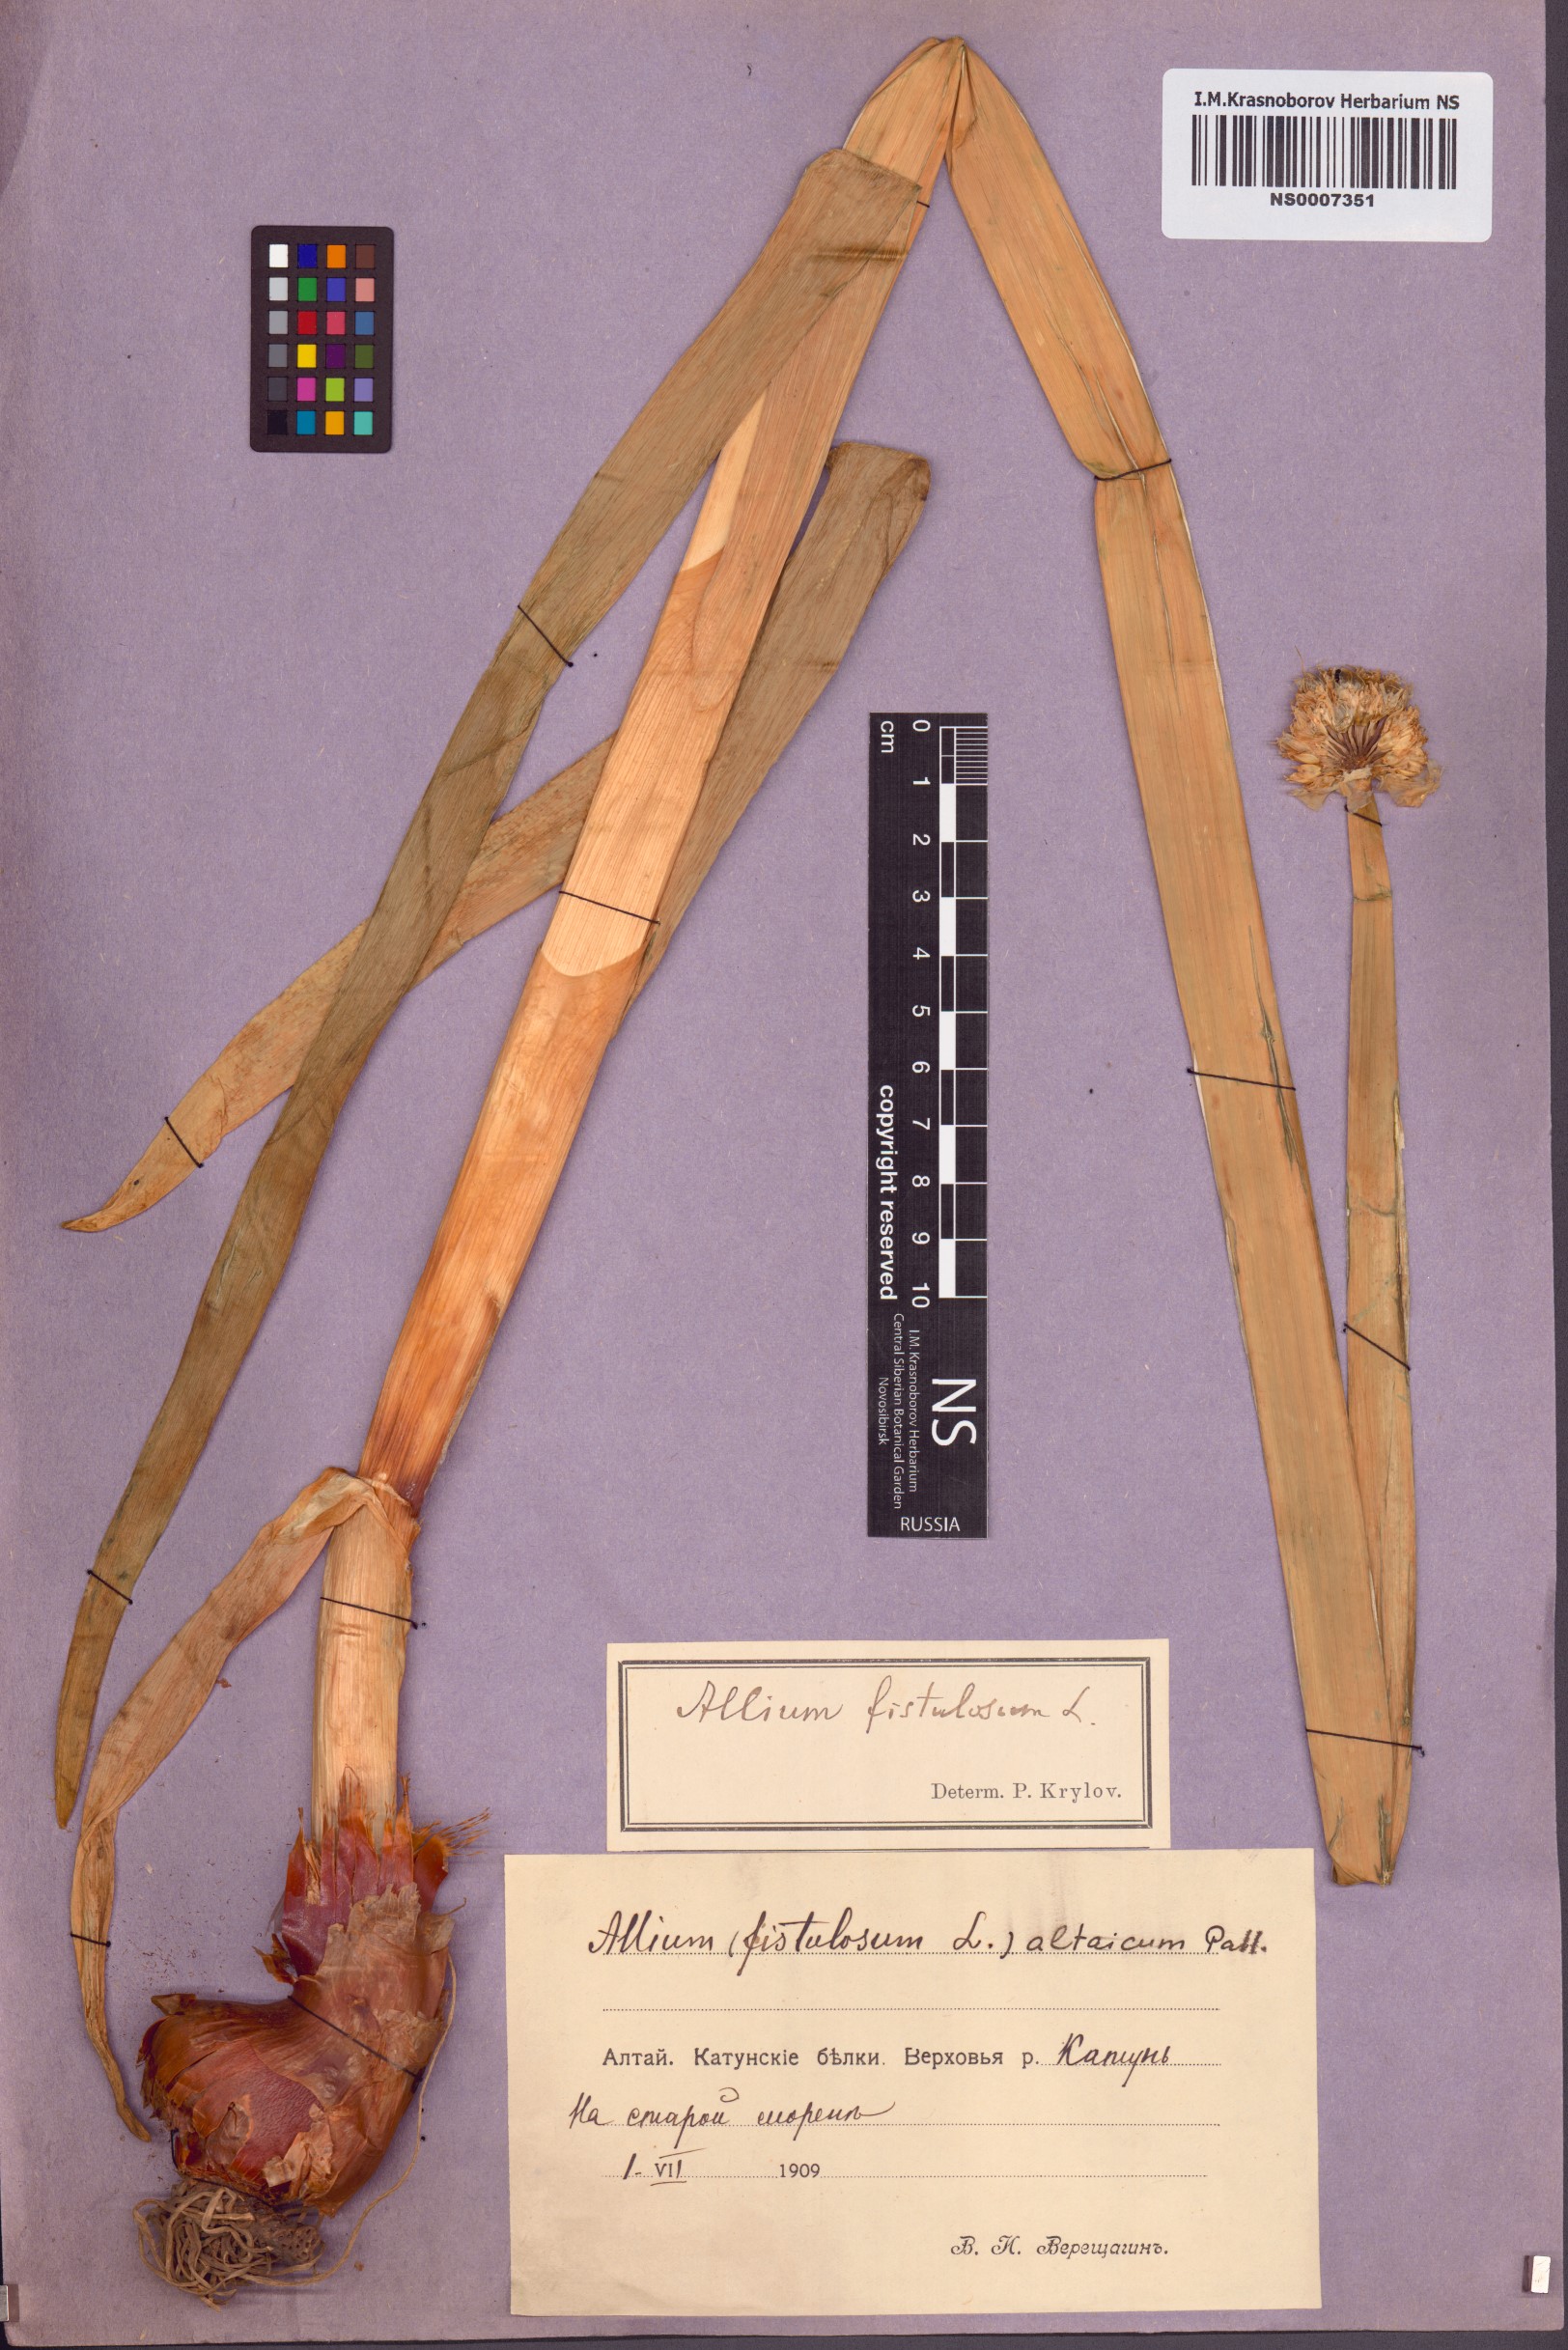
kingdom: Plantae
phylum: Tracheophyta
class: Liliopsida
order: Asparagales
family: Amaryllidaceae
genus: Allium
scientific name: Allium altaicum
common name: Altai onion
